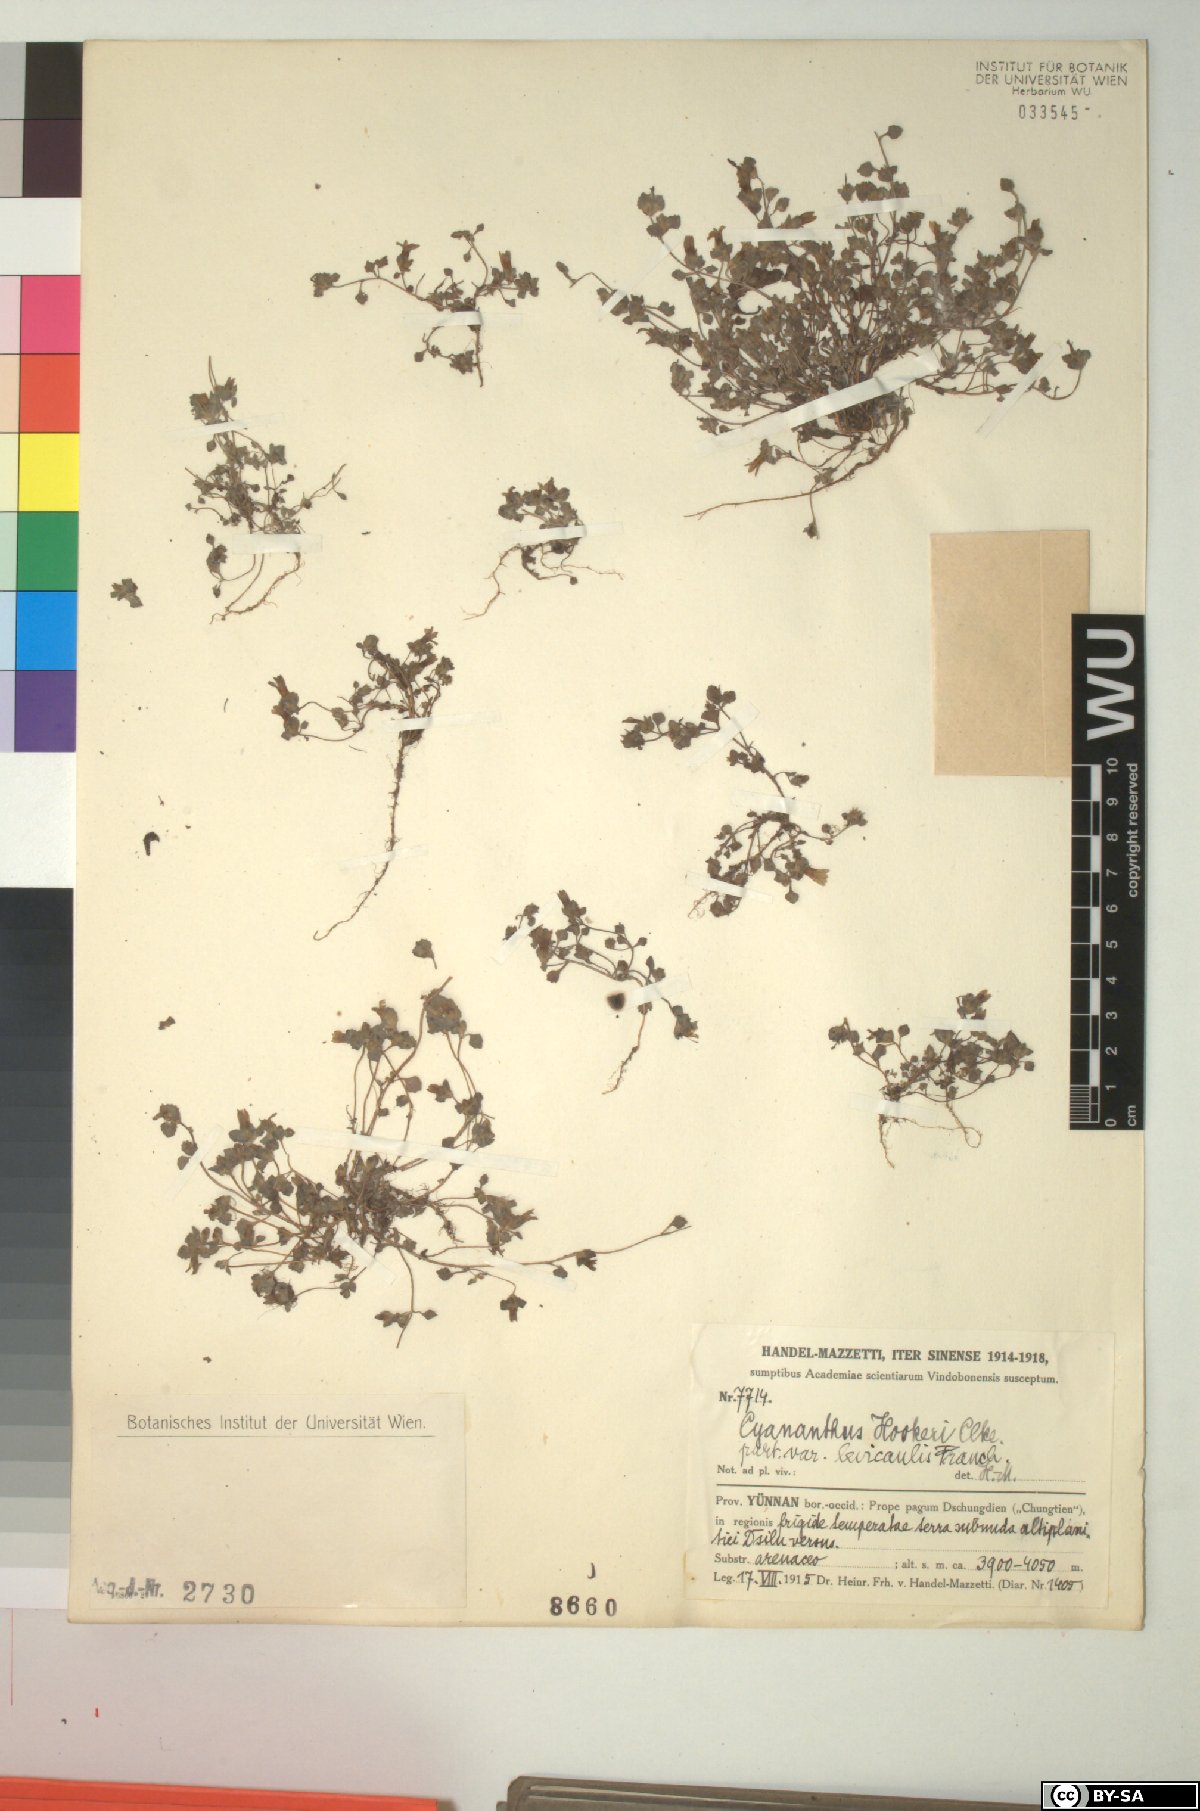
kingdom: Plantae
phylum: Tracheophyta
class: Magnoliopsida
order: Asterales
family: Campanulaceae
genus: Cyananthus
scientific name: Cyananthus hookeri
